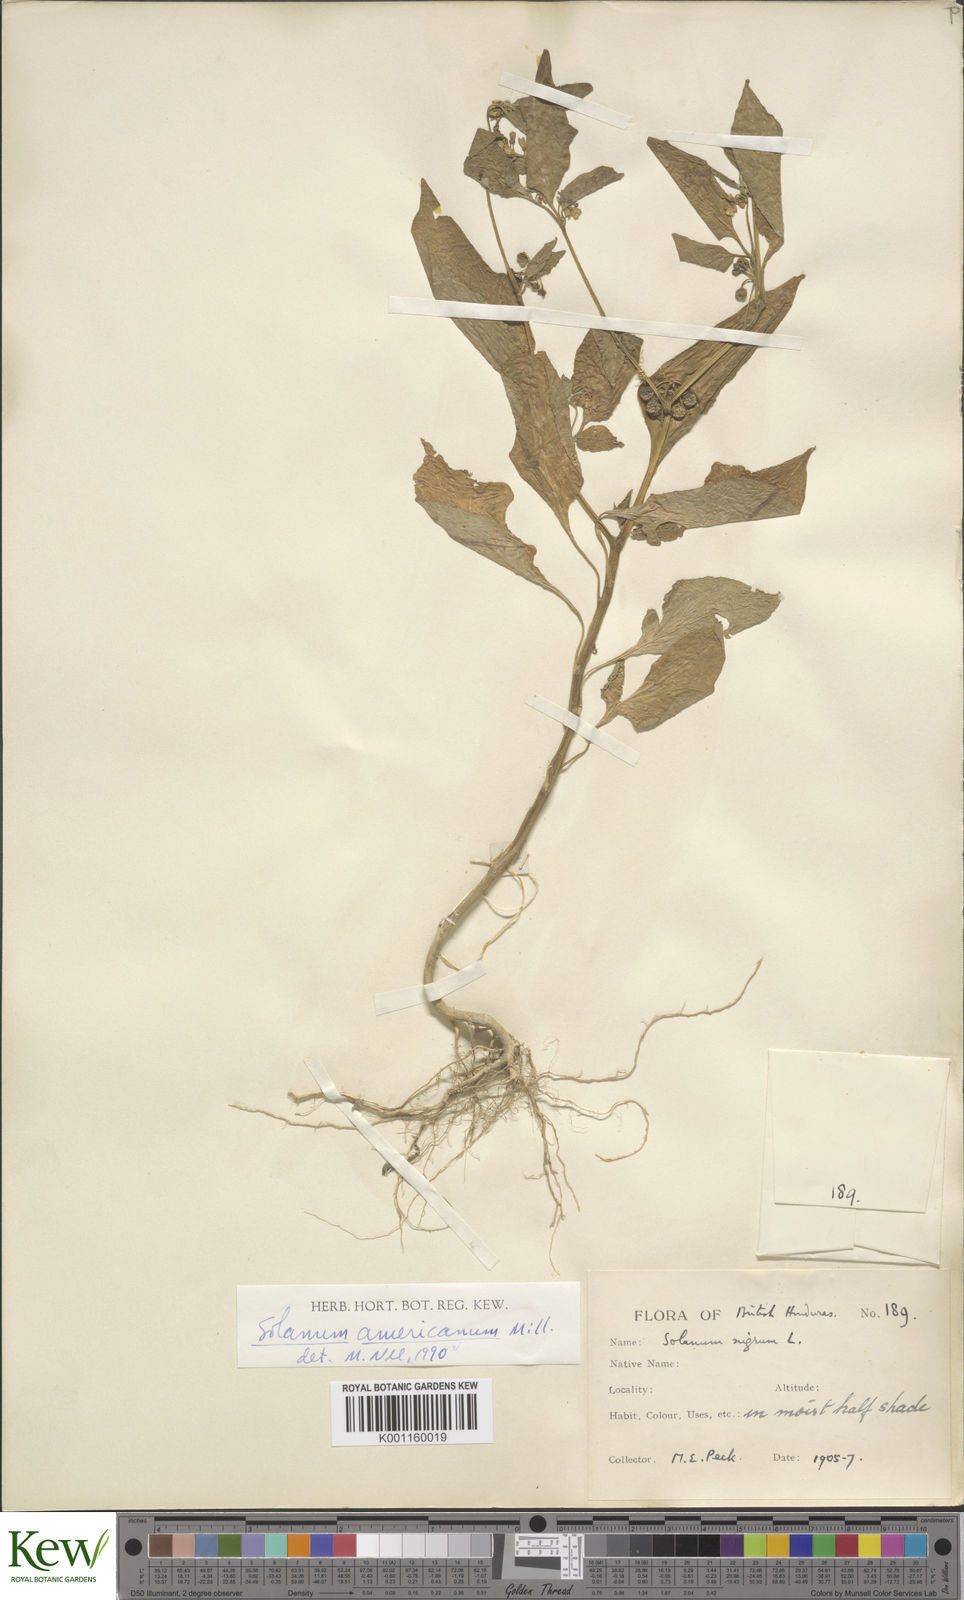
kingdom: Plantae
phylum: Tracheophyta
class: Magnoliopsida
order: Solanales
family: Solanaceae
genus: Solanum
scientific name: Solanum americanum
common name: American black nightshade
